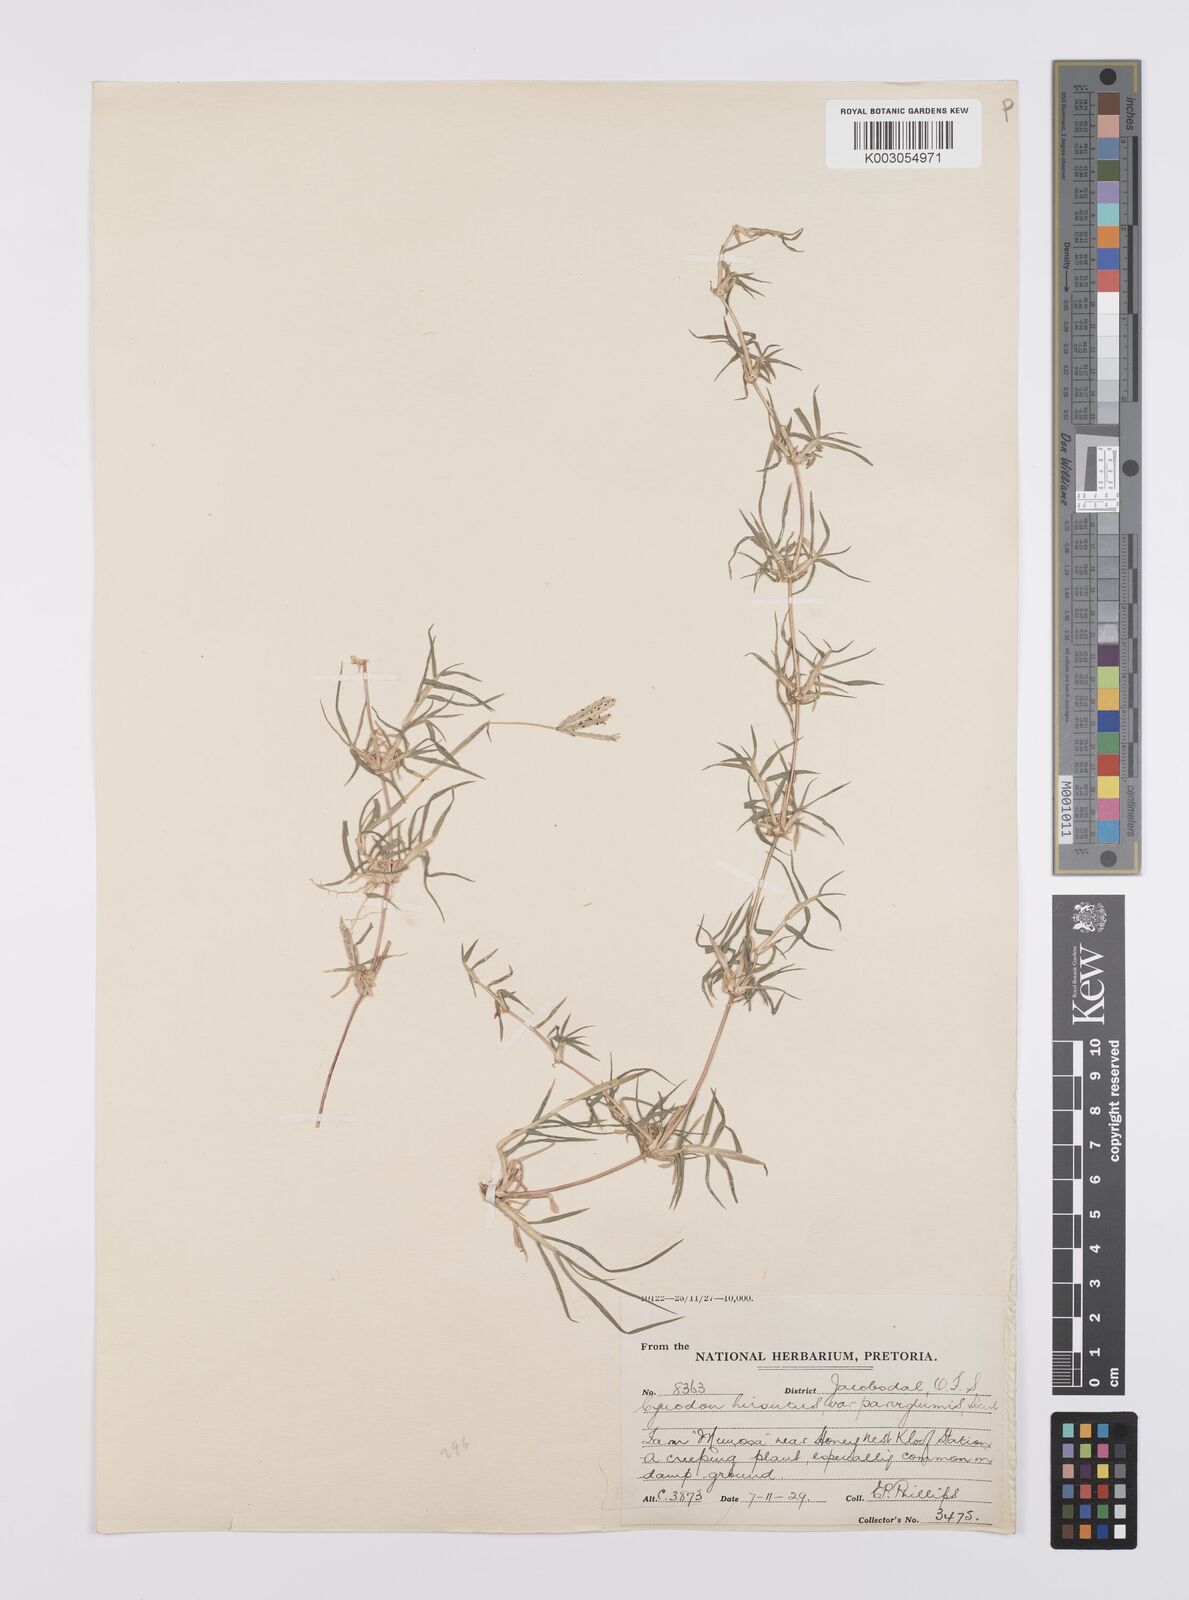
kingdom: Plantae
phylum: Tracheophyta
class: Liliopsida
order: Poales
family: Poaceae
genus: Cynodon
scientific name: Cynodon incompletus
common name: African bermuda-grass
